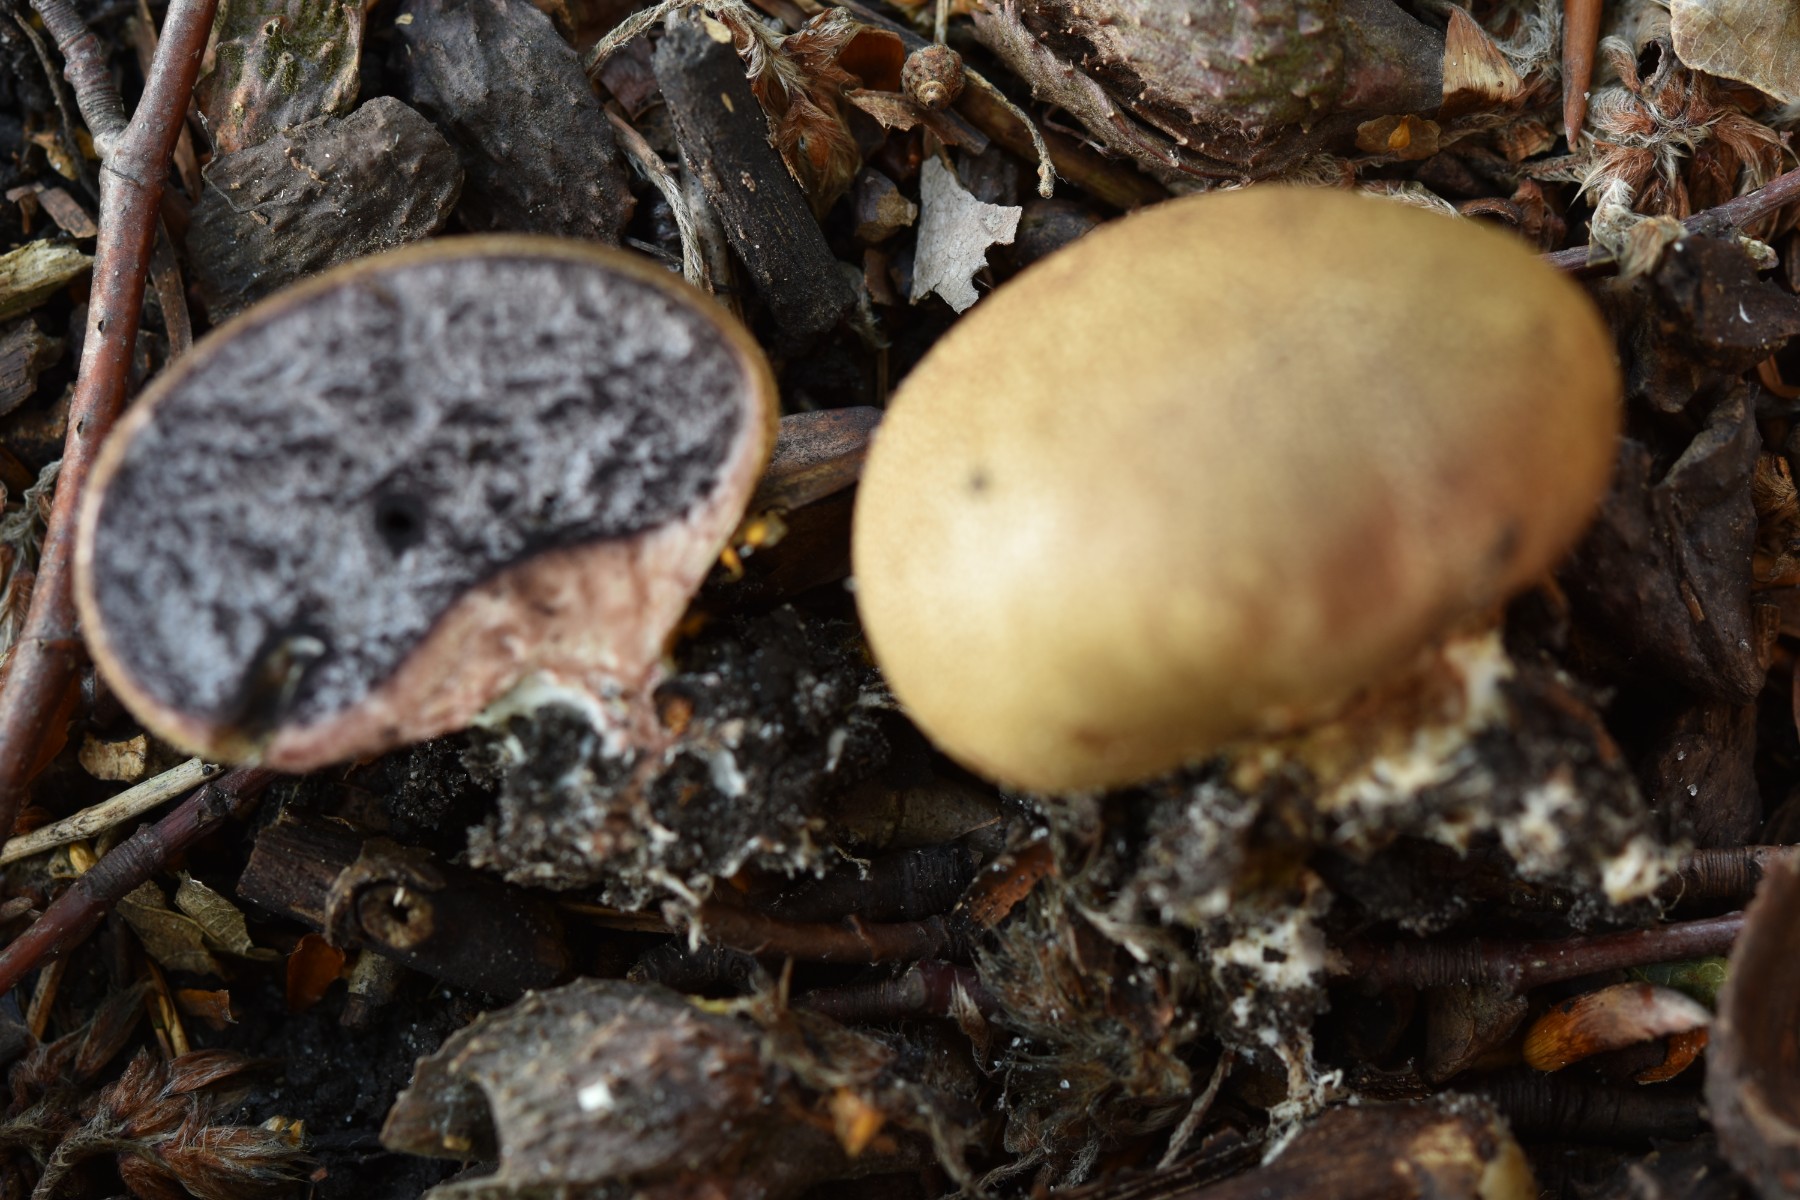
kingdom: Fungi
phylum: Basidiomycota
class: Agaricomycetes
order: Boletales
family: Sclerodermataceae
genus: Scleroderma
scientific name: Scleroderma areolatum
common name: plettet bruskbold
